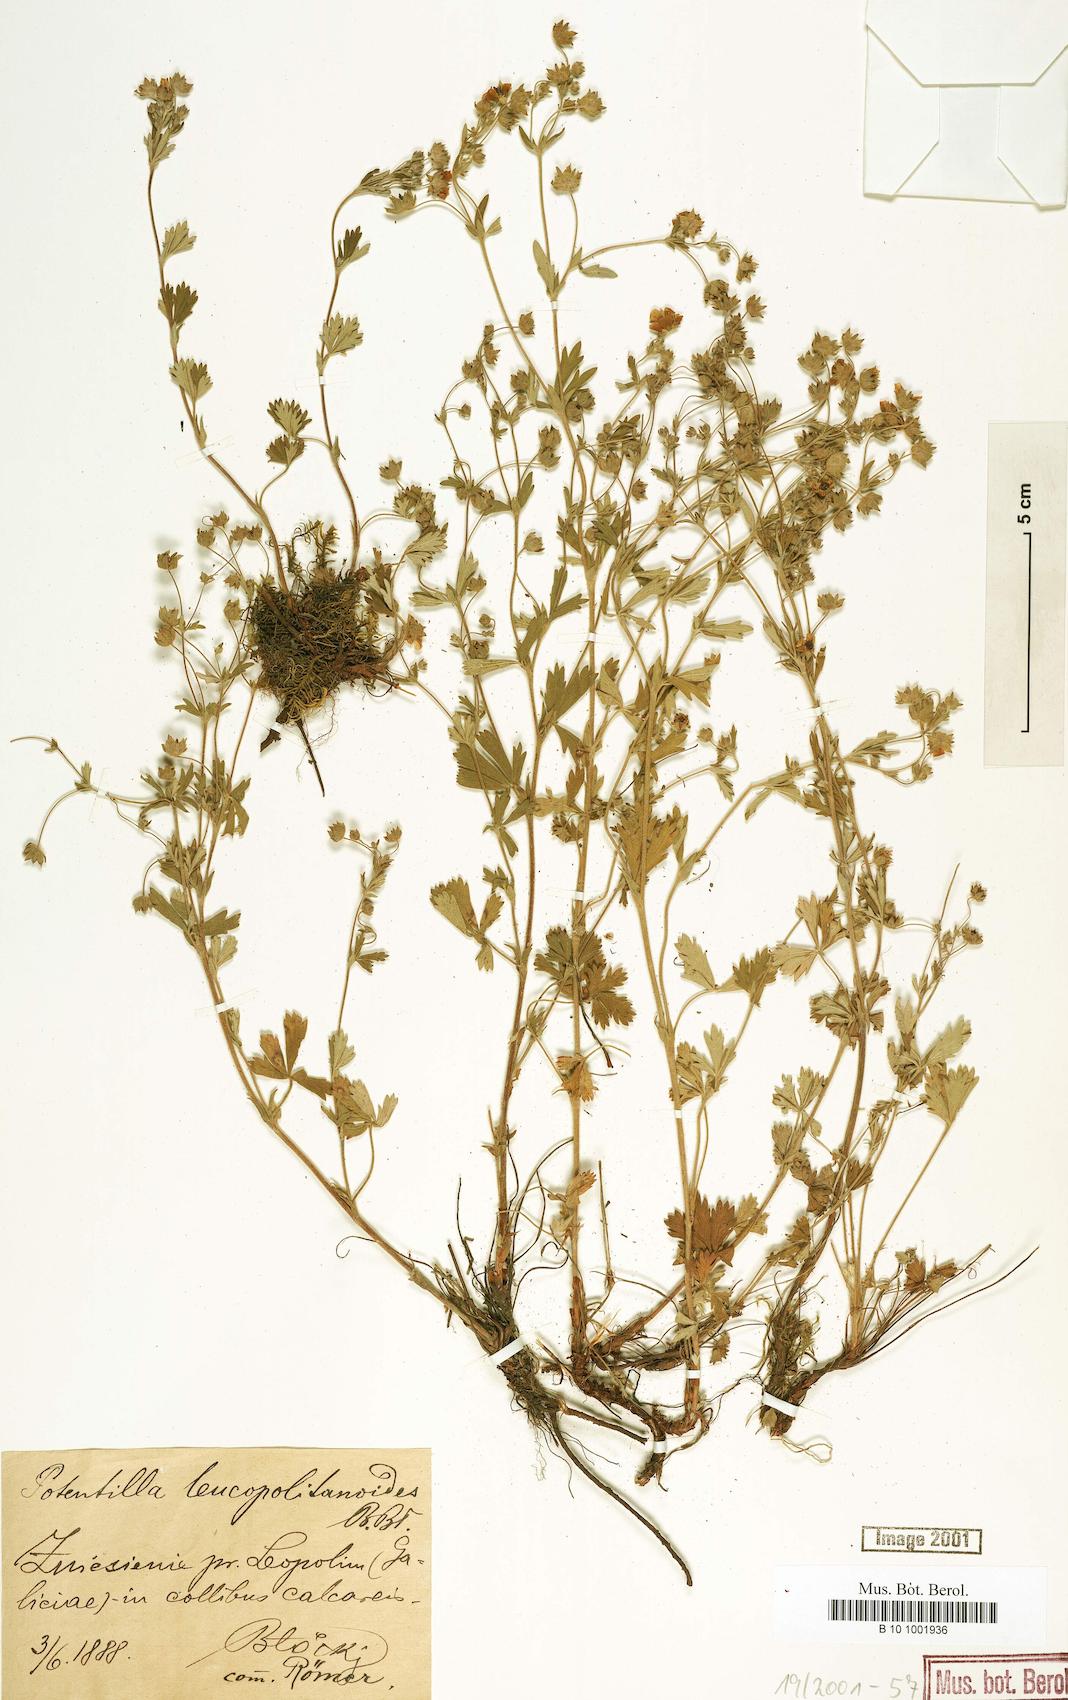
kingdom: Plantae
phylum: Tracheophyta
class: Magnoliopsida
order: Rosales
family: Rosaceae
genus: Potentilla
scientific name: Potentilla thyrsiflora
